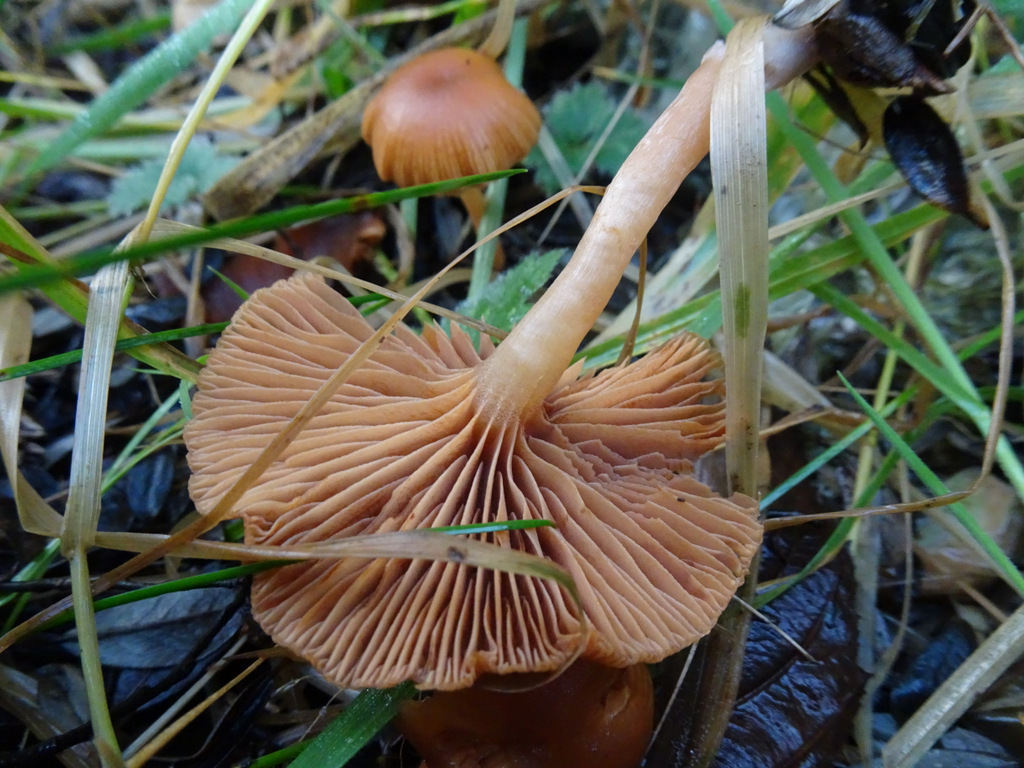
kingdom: Fungi
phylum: Basidiomycota
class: Agaricomycetes
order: Agaricales
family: Tubariaceae
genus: Tubaria
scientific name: Tubaria furfuracea
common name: kliddet fnughat
